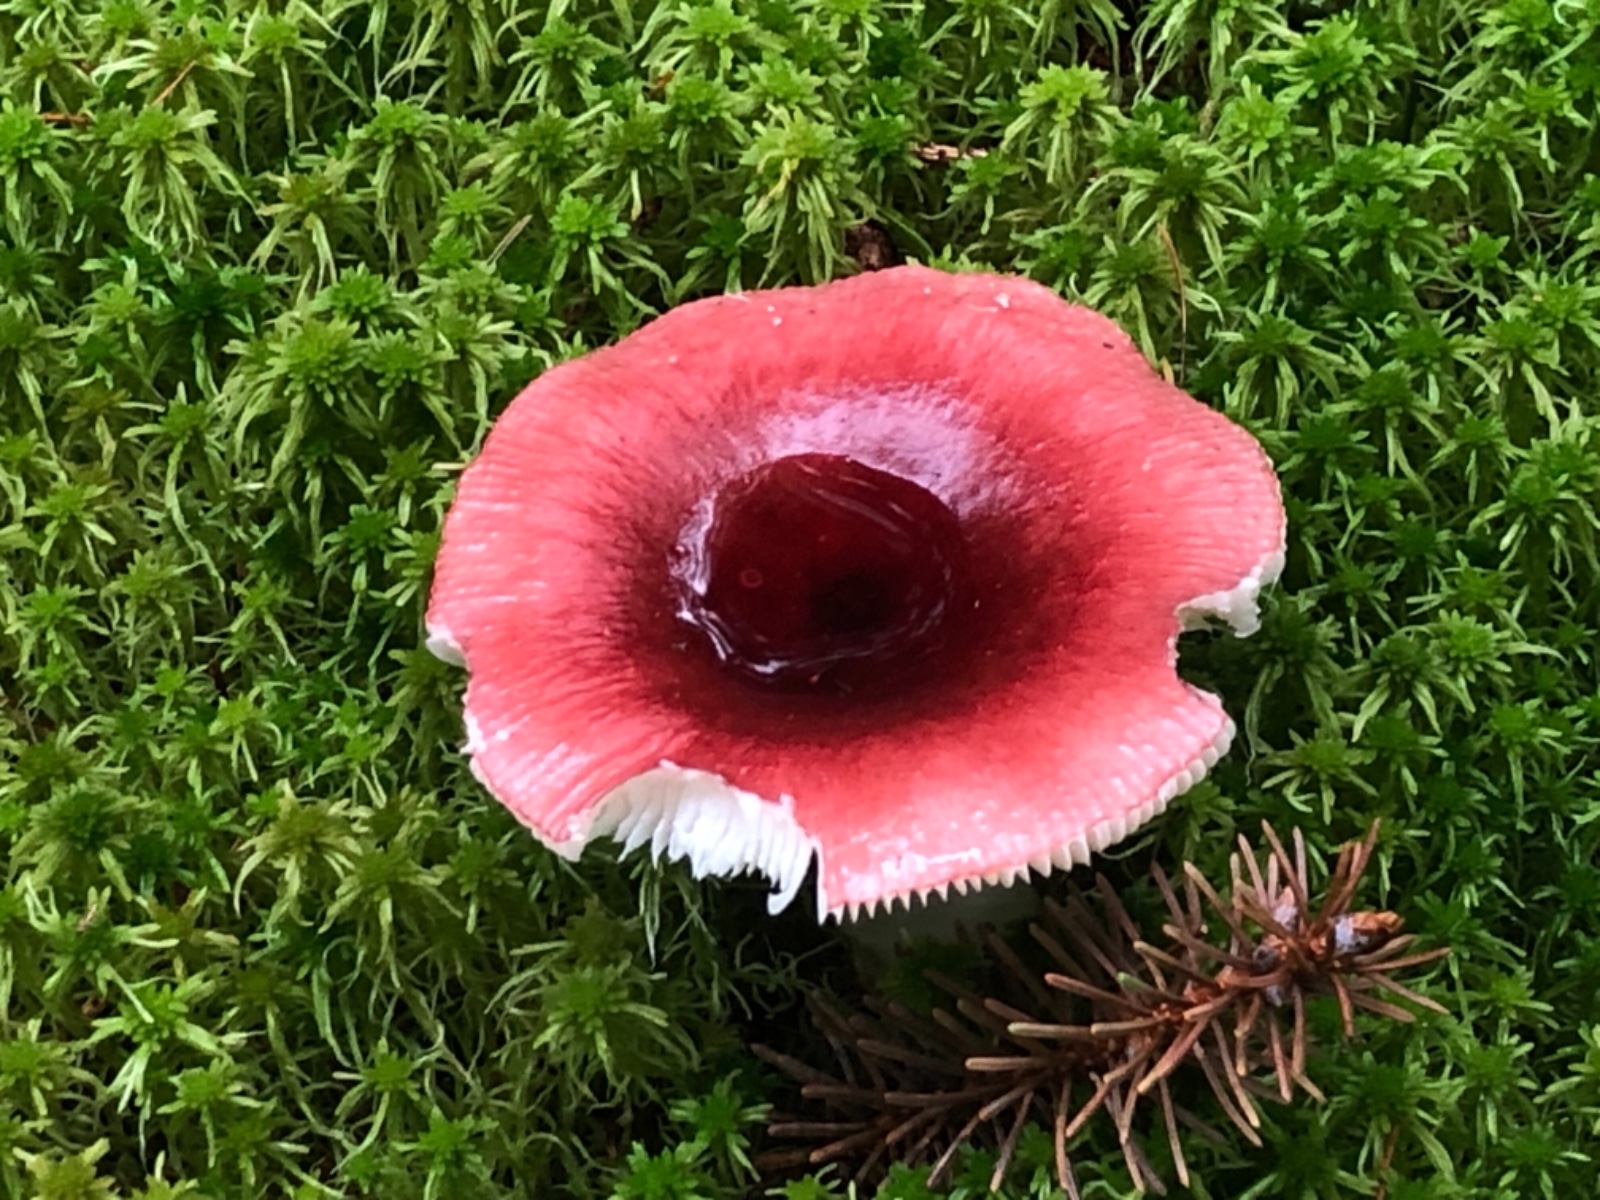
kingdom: Fungi
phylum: Basidiomycota
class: Agaricomycetes
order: Russulales
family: Russulaceae
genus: Russula
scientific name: Russula
